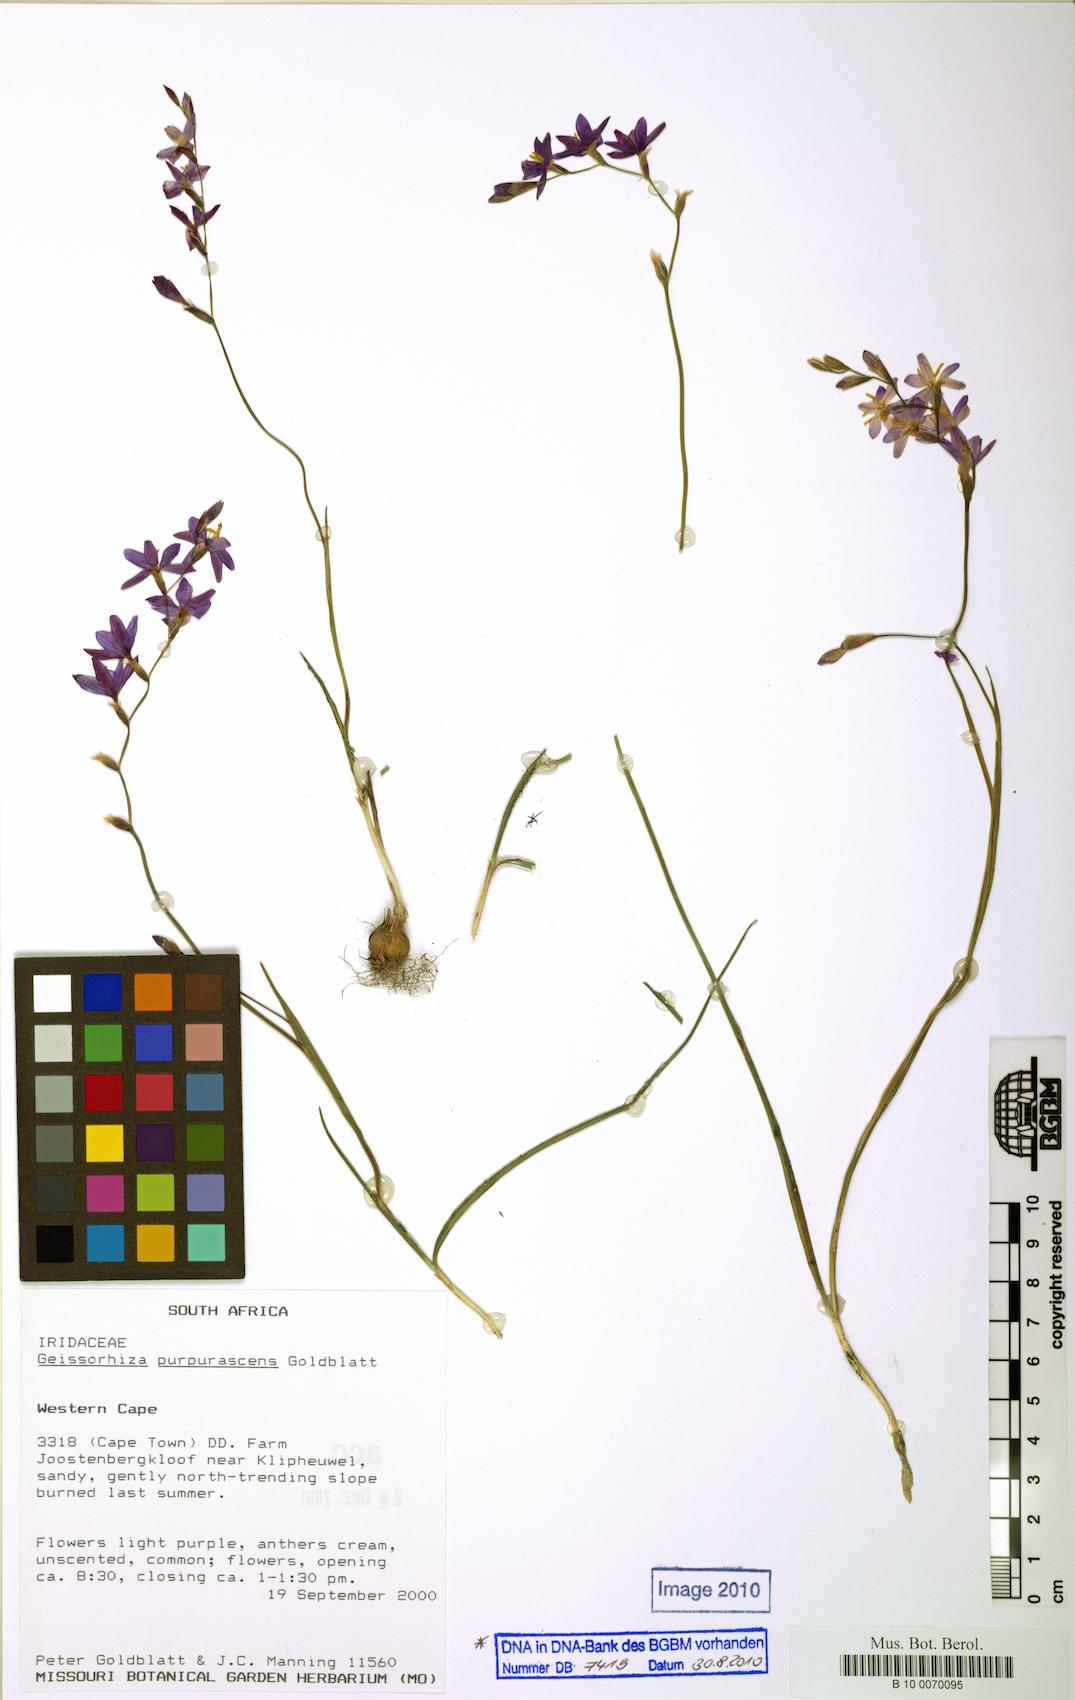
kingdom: Plantae
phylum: Tracheophyta
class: Liliopsida
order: Asparagales
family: Iridaceae
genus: Geissorhiza
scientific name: Geissorhiza purpurascens
